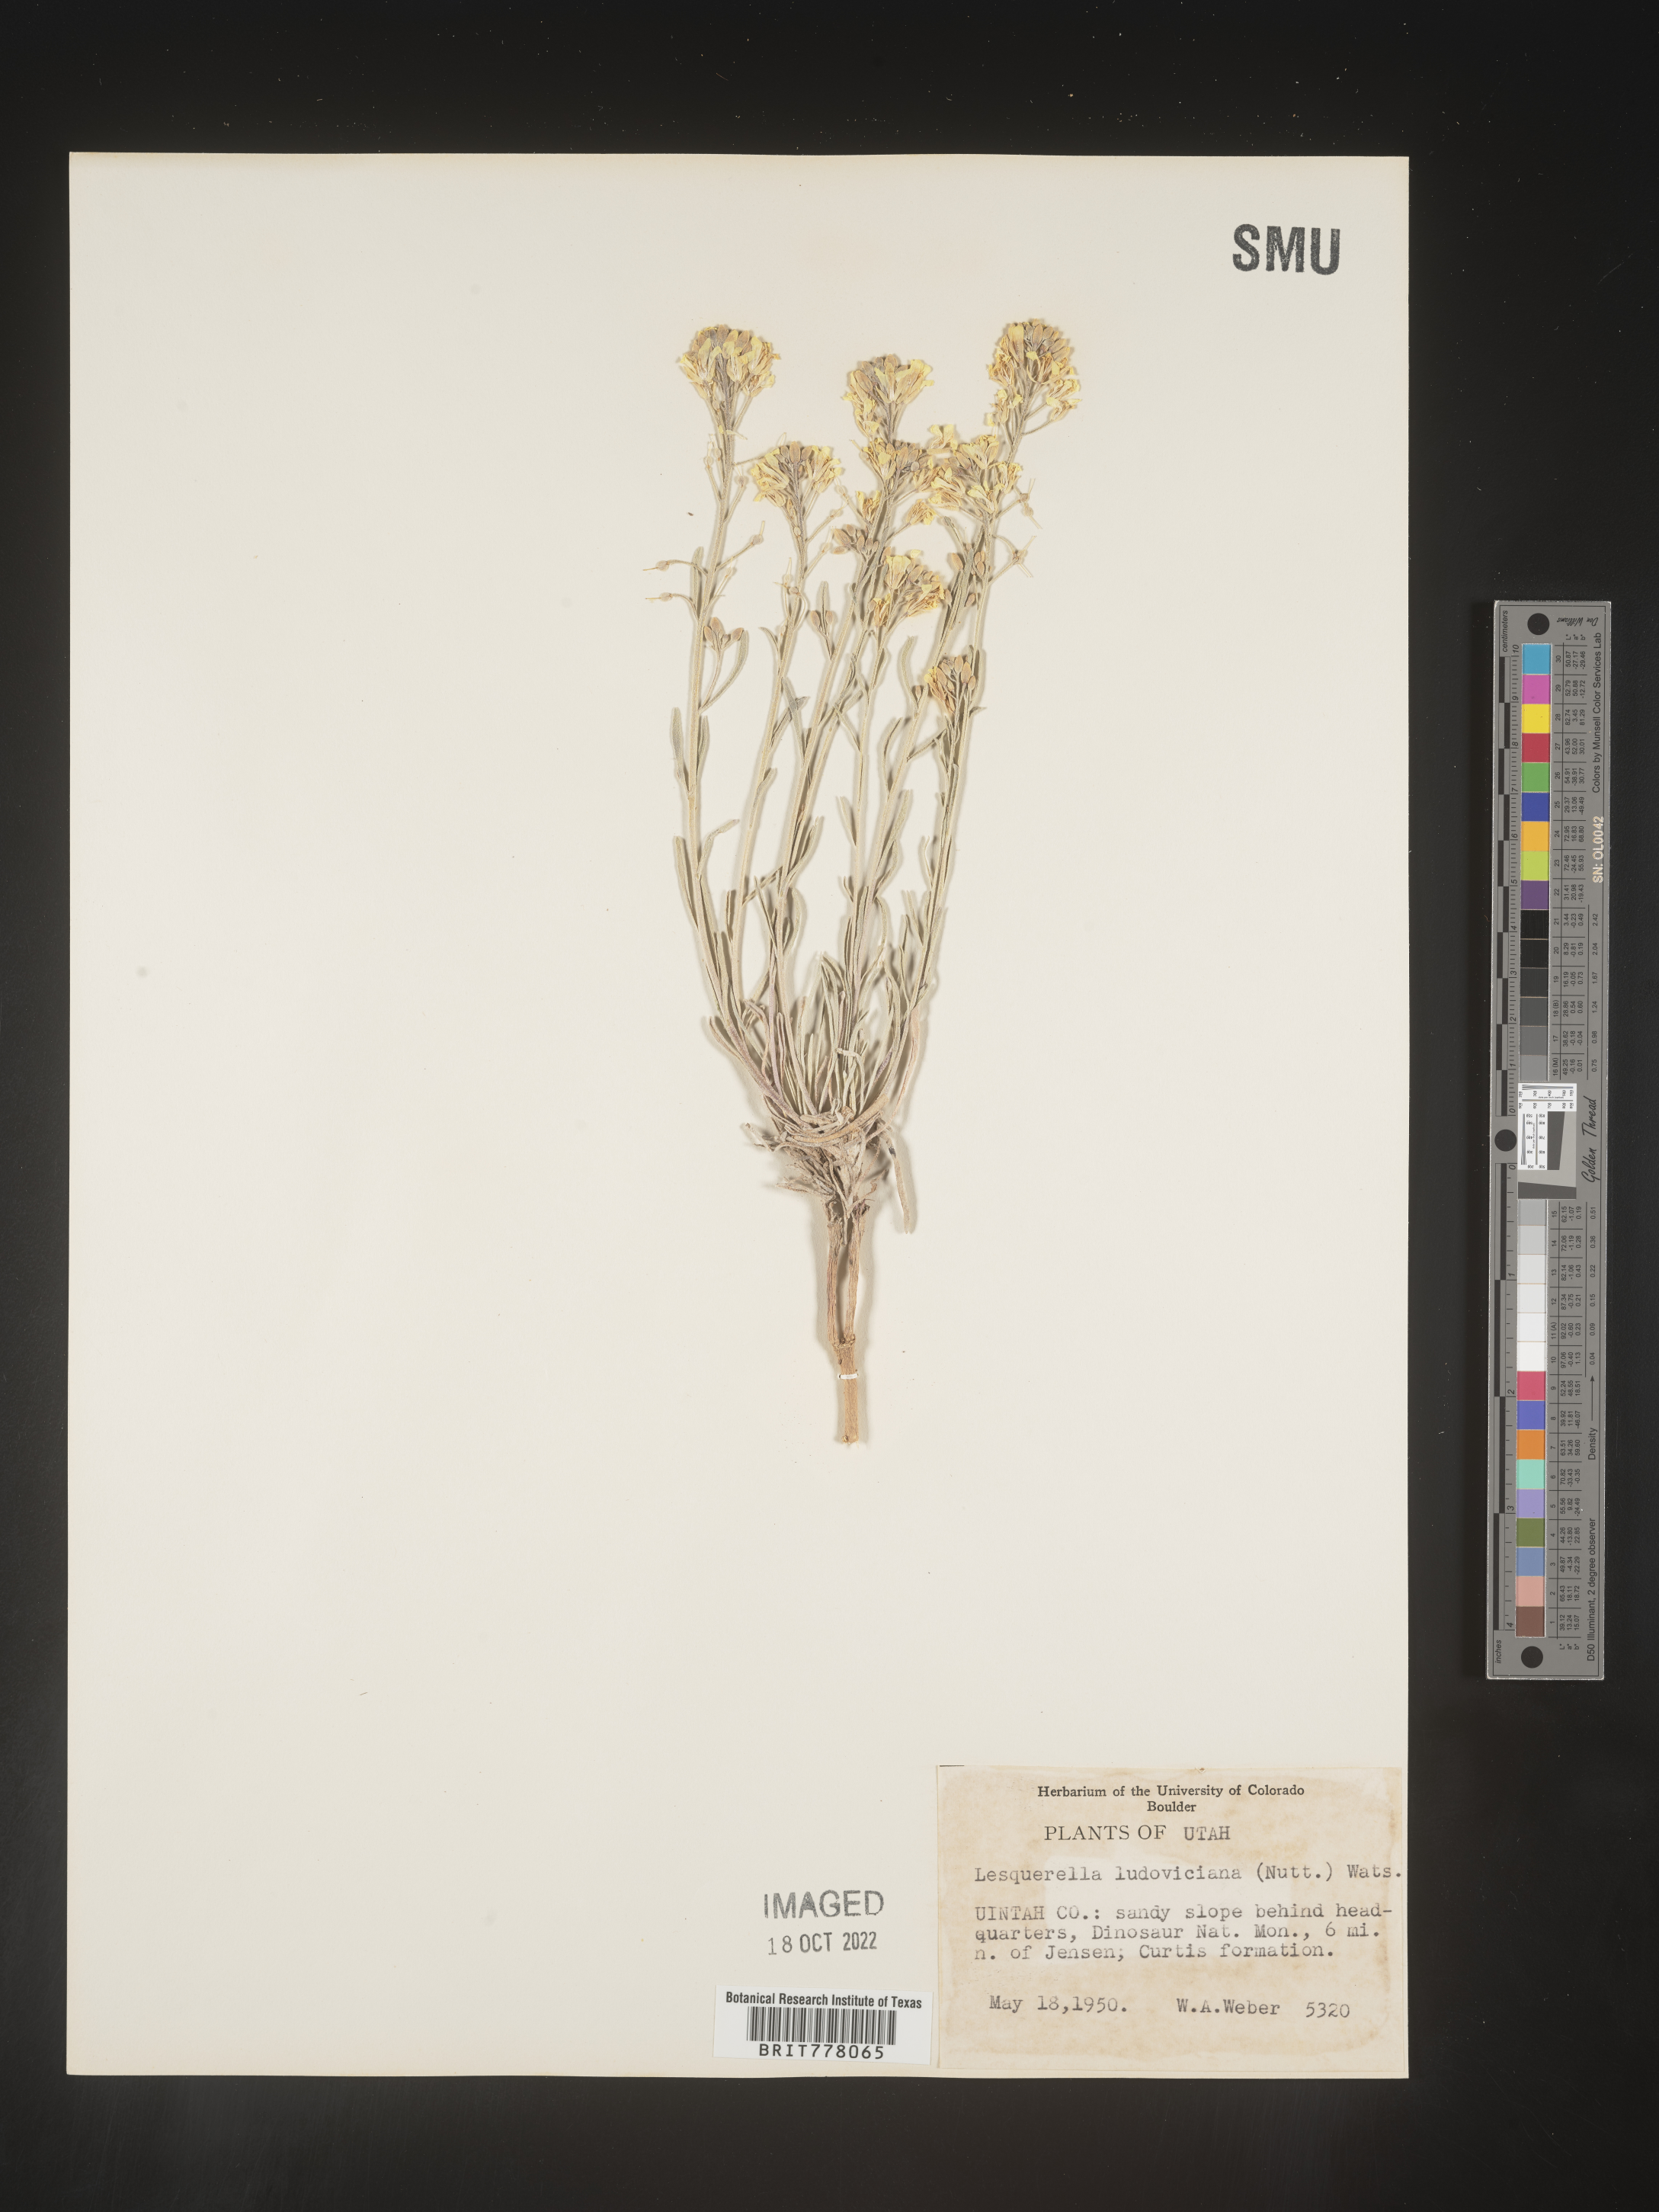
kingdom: Chromista
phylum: Cercozoa
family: Psammonobiotidae
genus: Lesquerella
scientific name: Lesquerella
